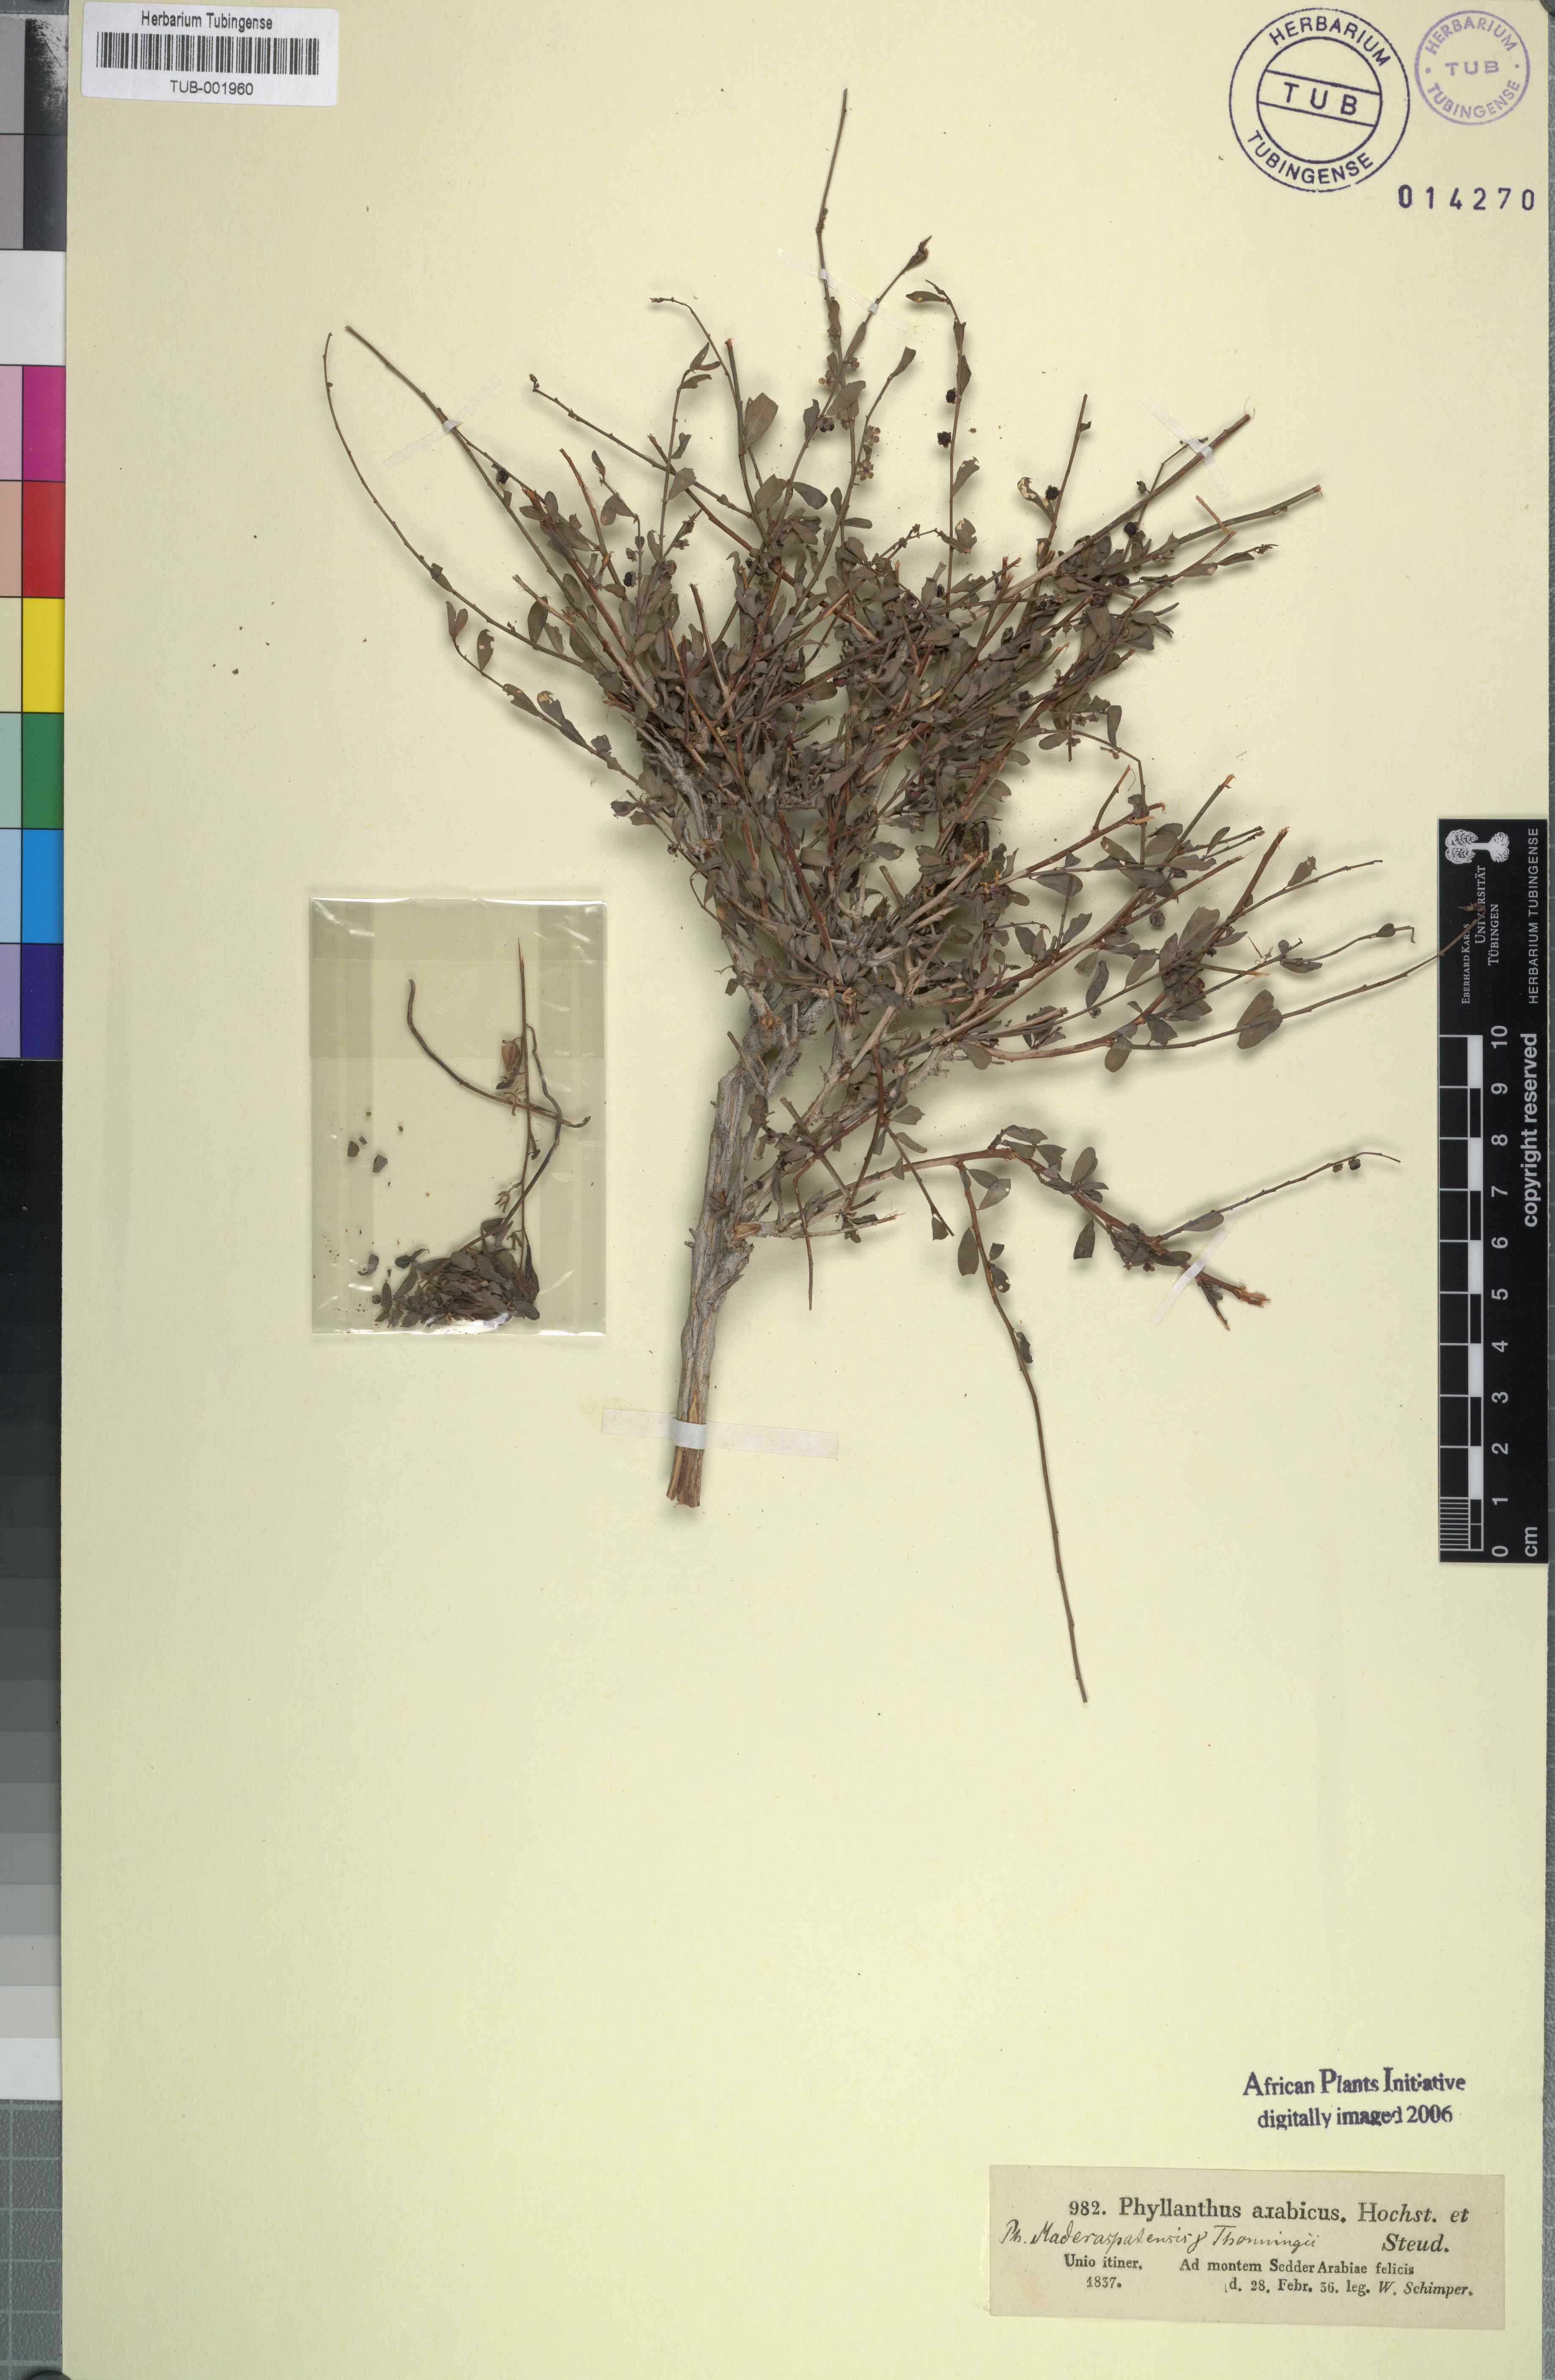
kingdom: Plantae
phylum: Tracheophyta
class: Magnoliopsida
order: Malpighiales
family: Phyllanthaceae
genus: Phyllanthus
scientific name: Phyllanthus maderaspatensis
